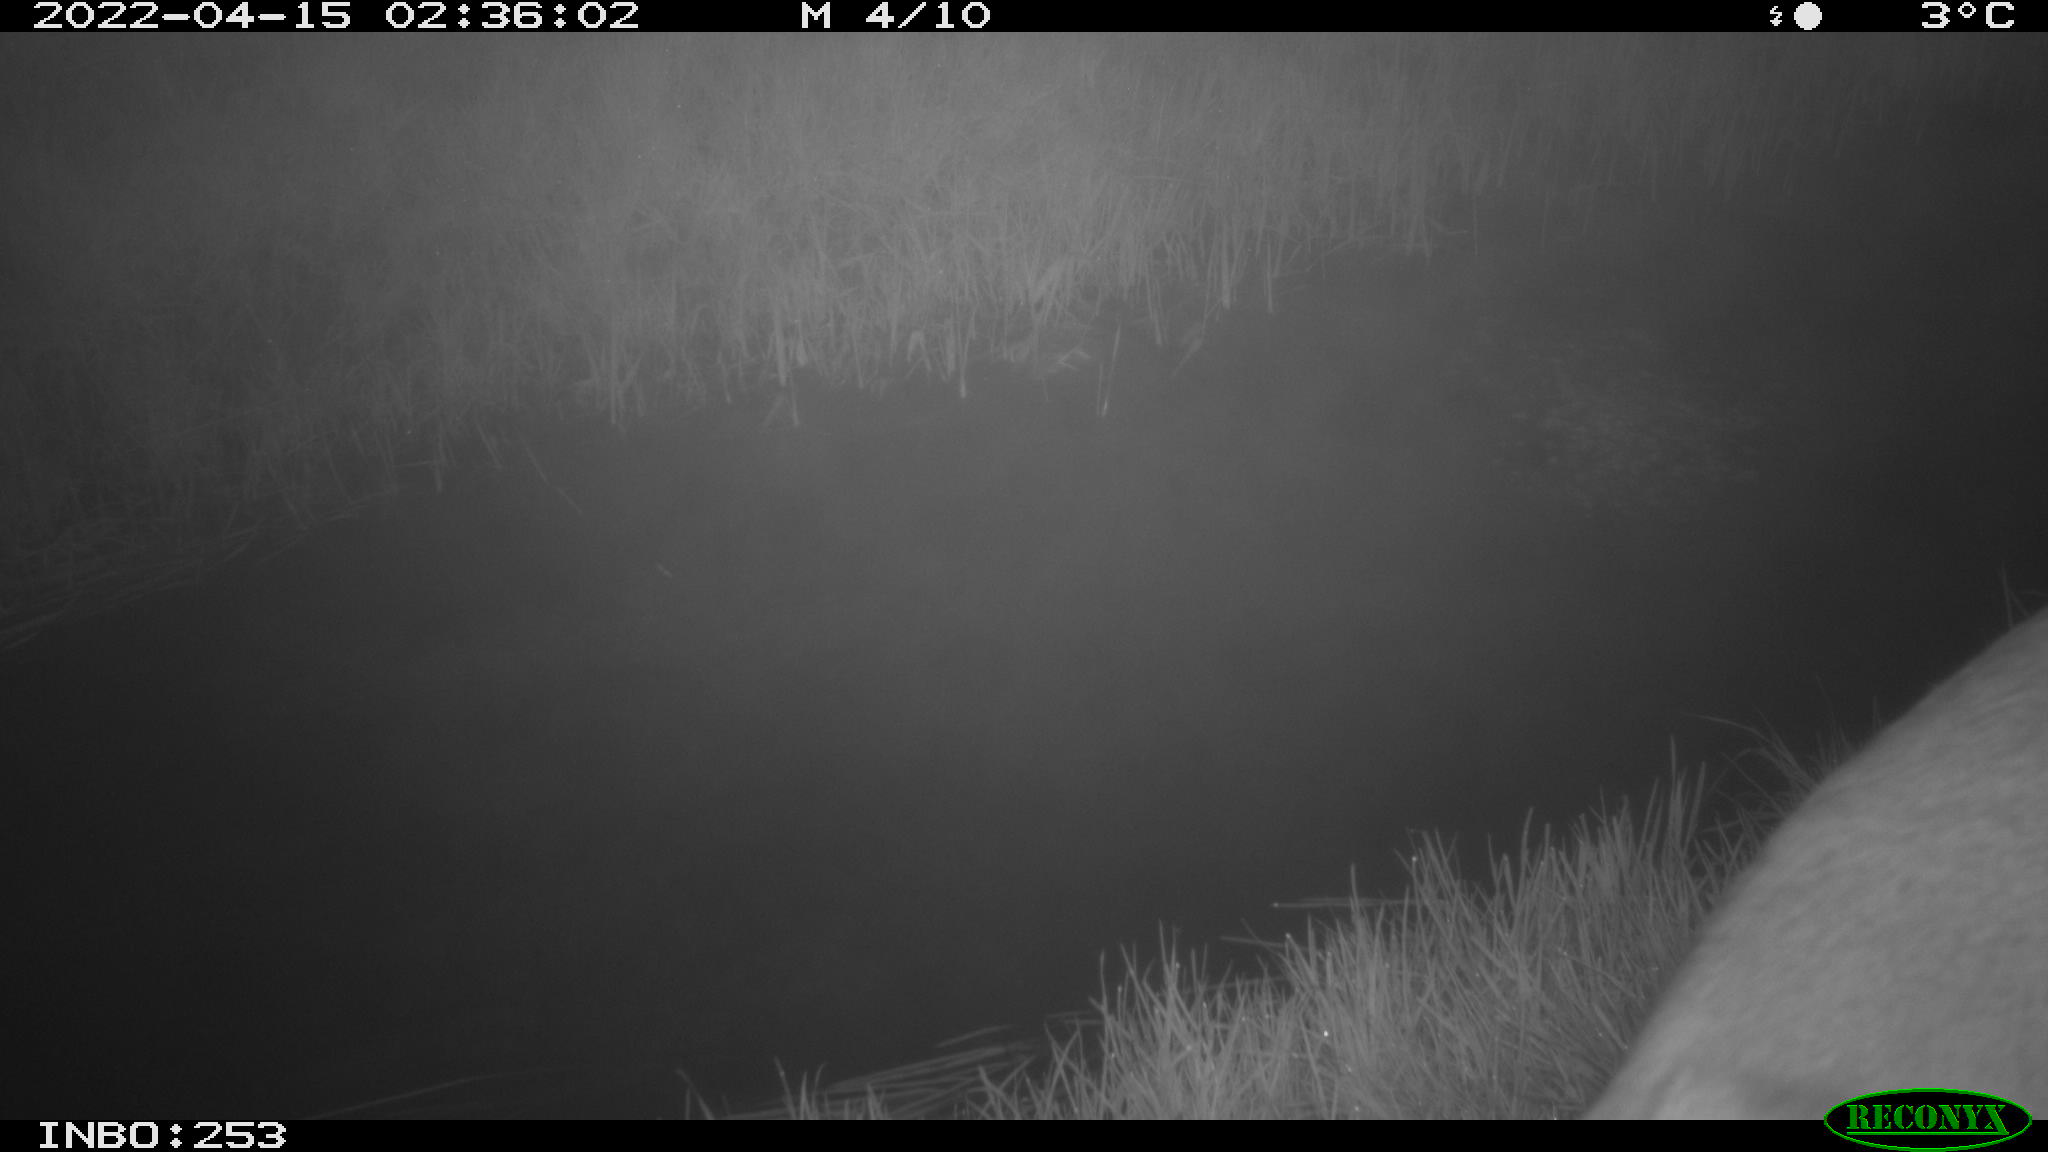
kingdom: Animalia
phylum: Chordata
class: Mammalia
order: Artiodactyla
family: Cervidae
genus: Capreolus
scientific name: Capreolus capreolus
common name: Western roe deer
